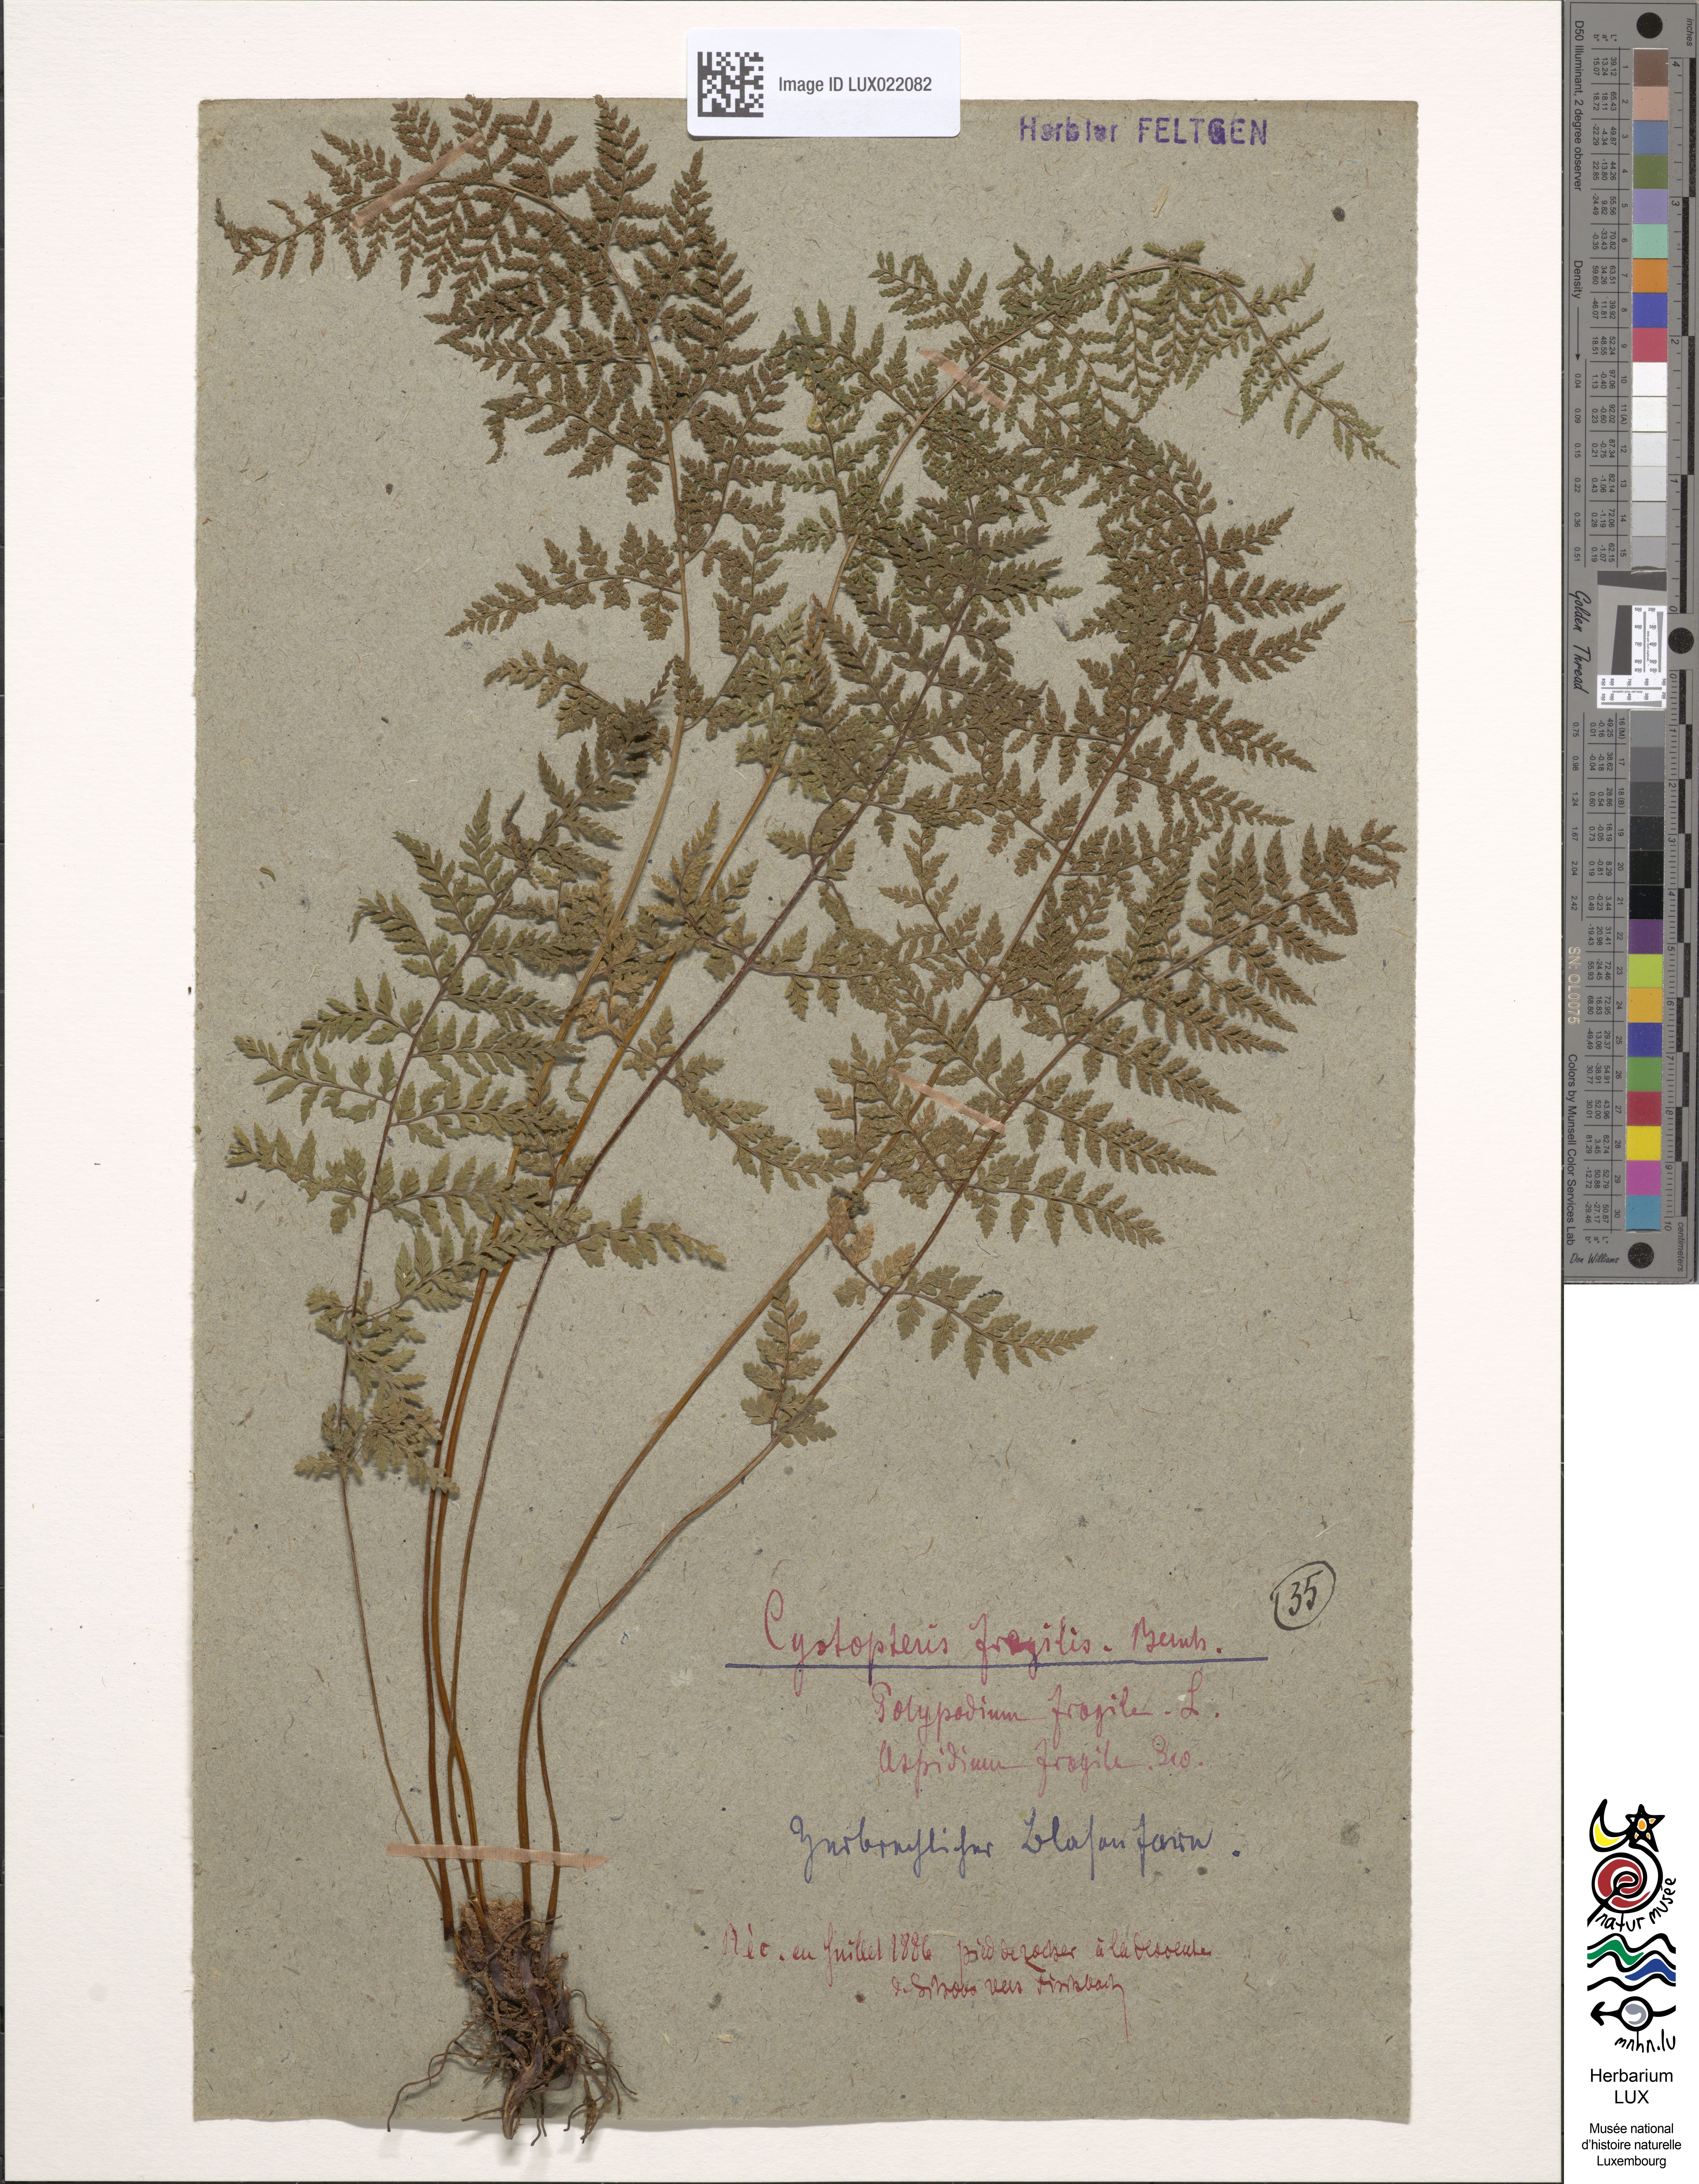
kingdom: Plantae
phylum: Tracheophyta
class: Polypodiopsida
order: Polypodiales
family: Cystopteridaceae
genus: Cystopteris
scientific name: Cystopteris fragilis
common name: Brittle bladder fern
